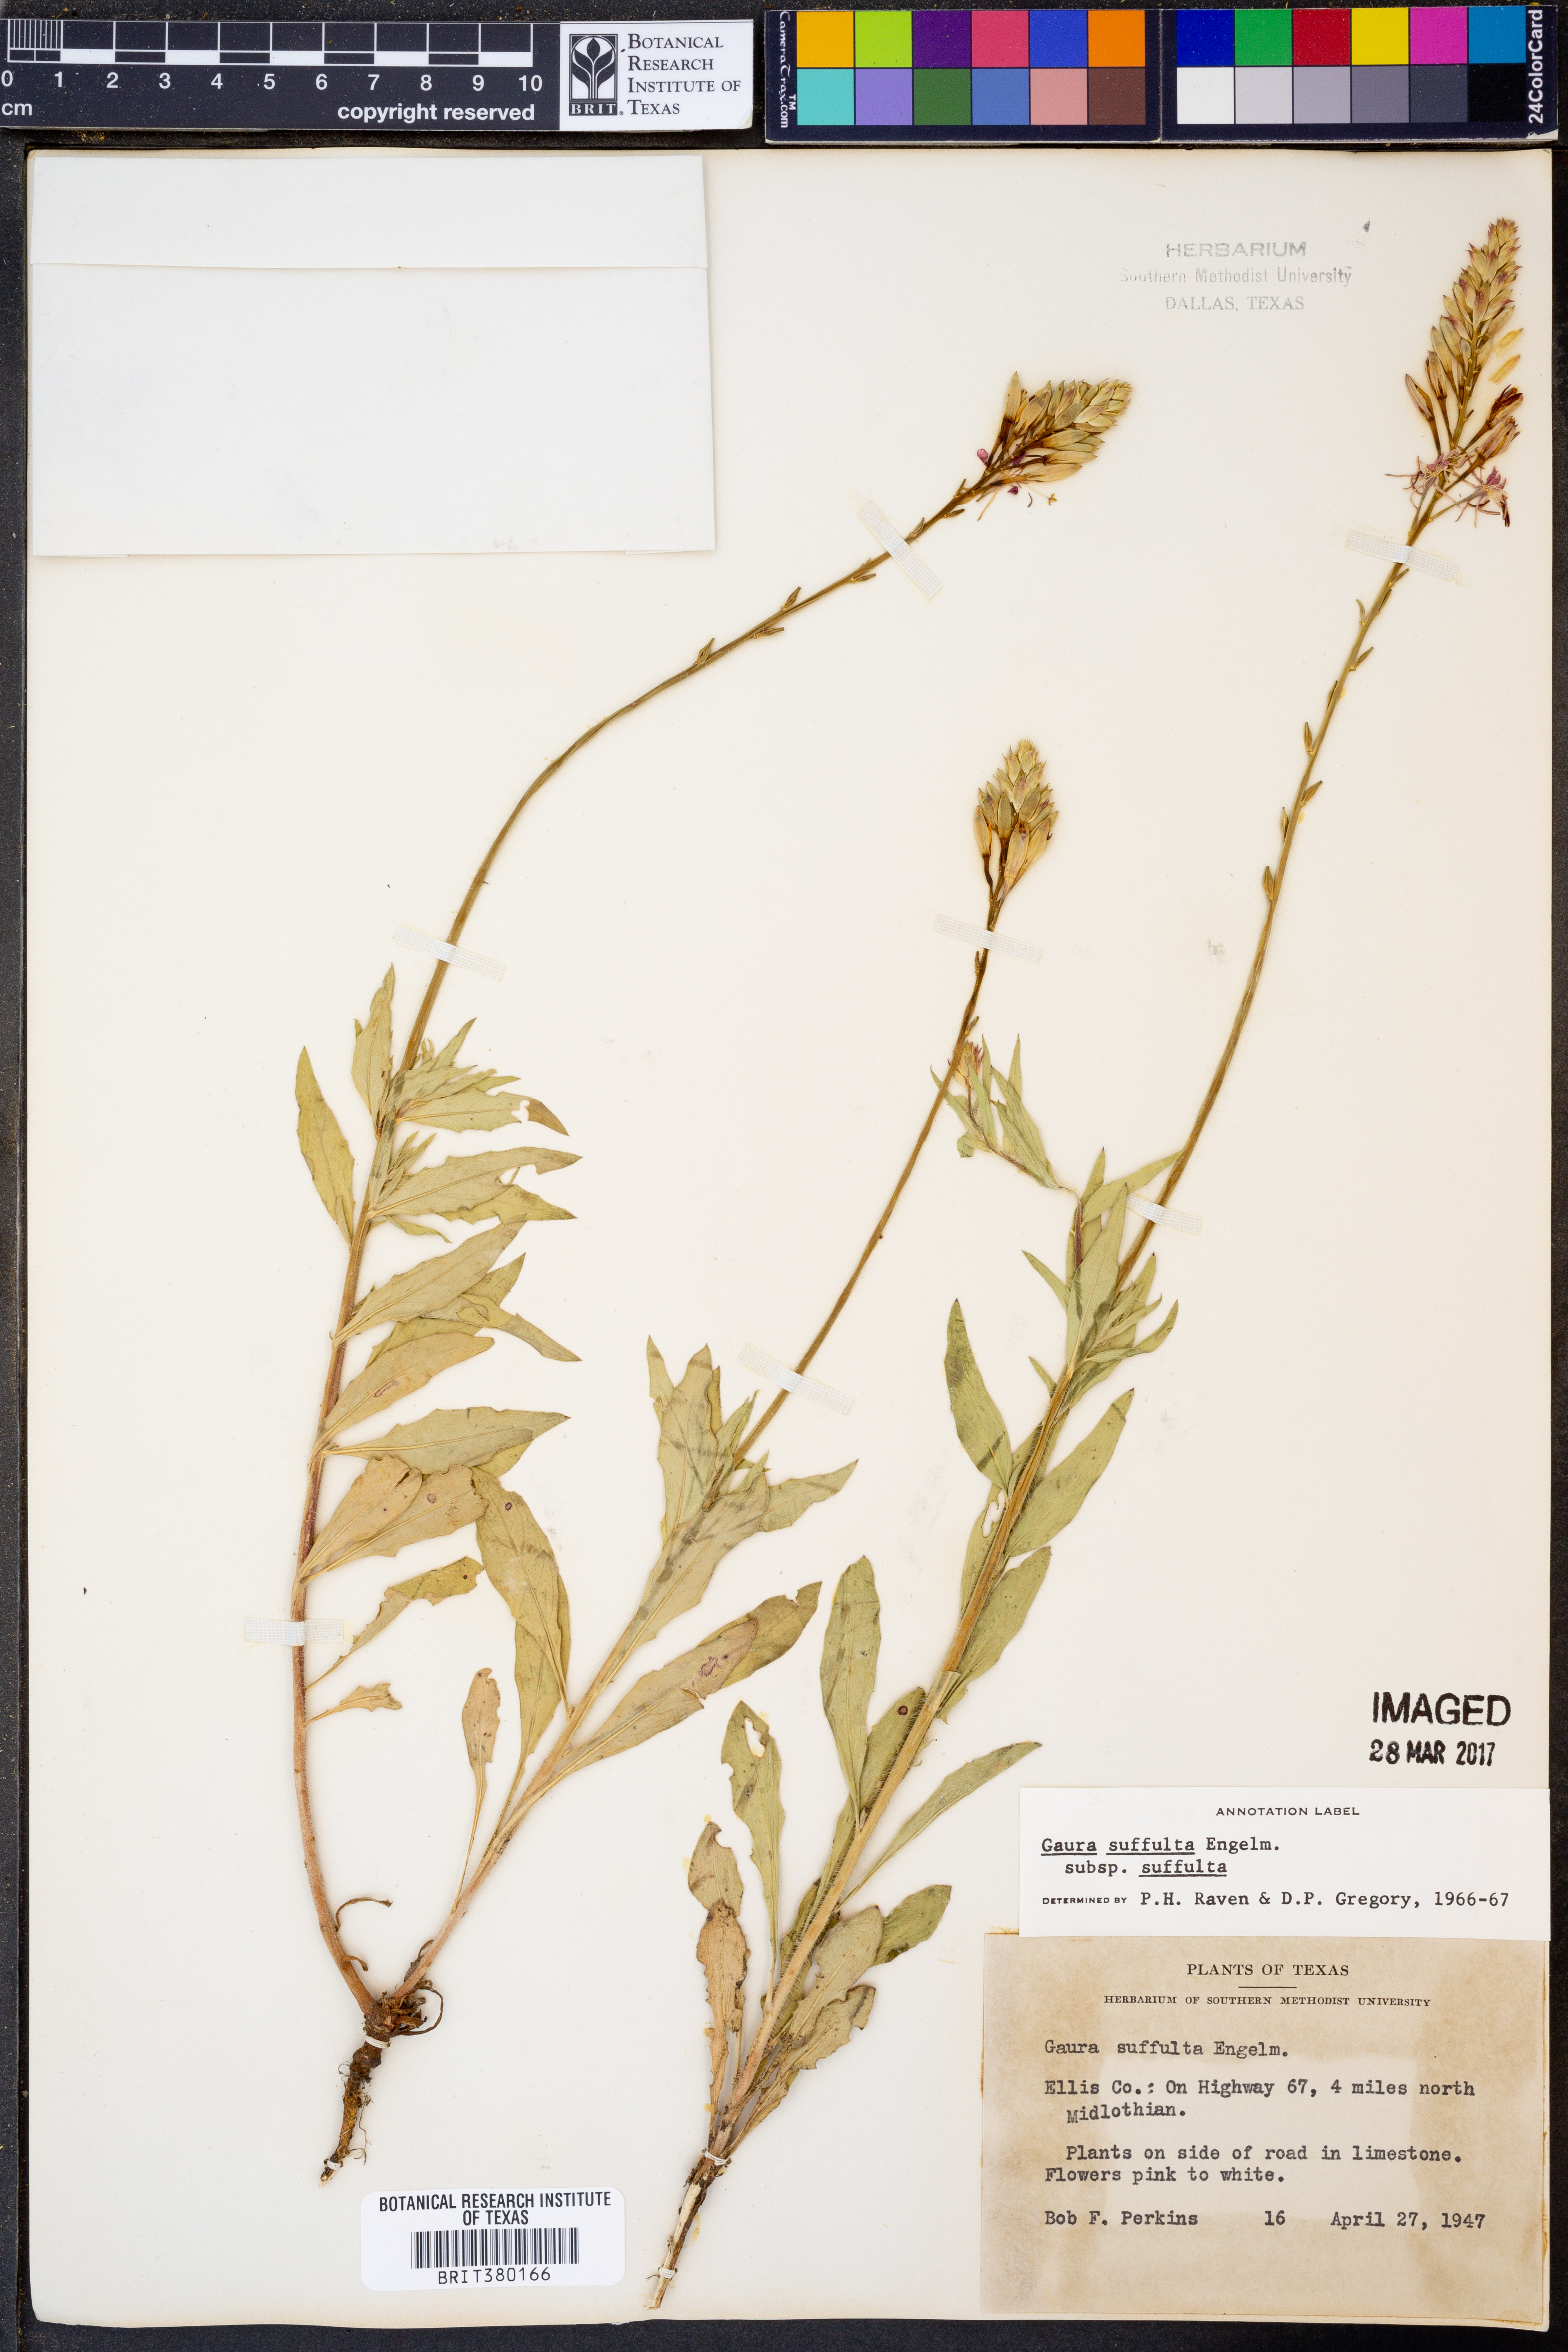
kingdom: Plantae
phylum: Tracheophyta
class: Magnoliopsida
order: Myrtales
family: Onagraceae
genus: Oenothera
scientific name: Oenothera suffulta
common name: Kisses
